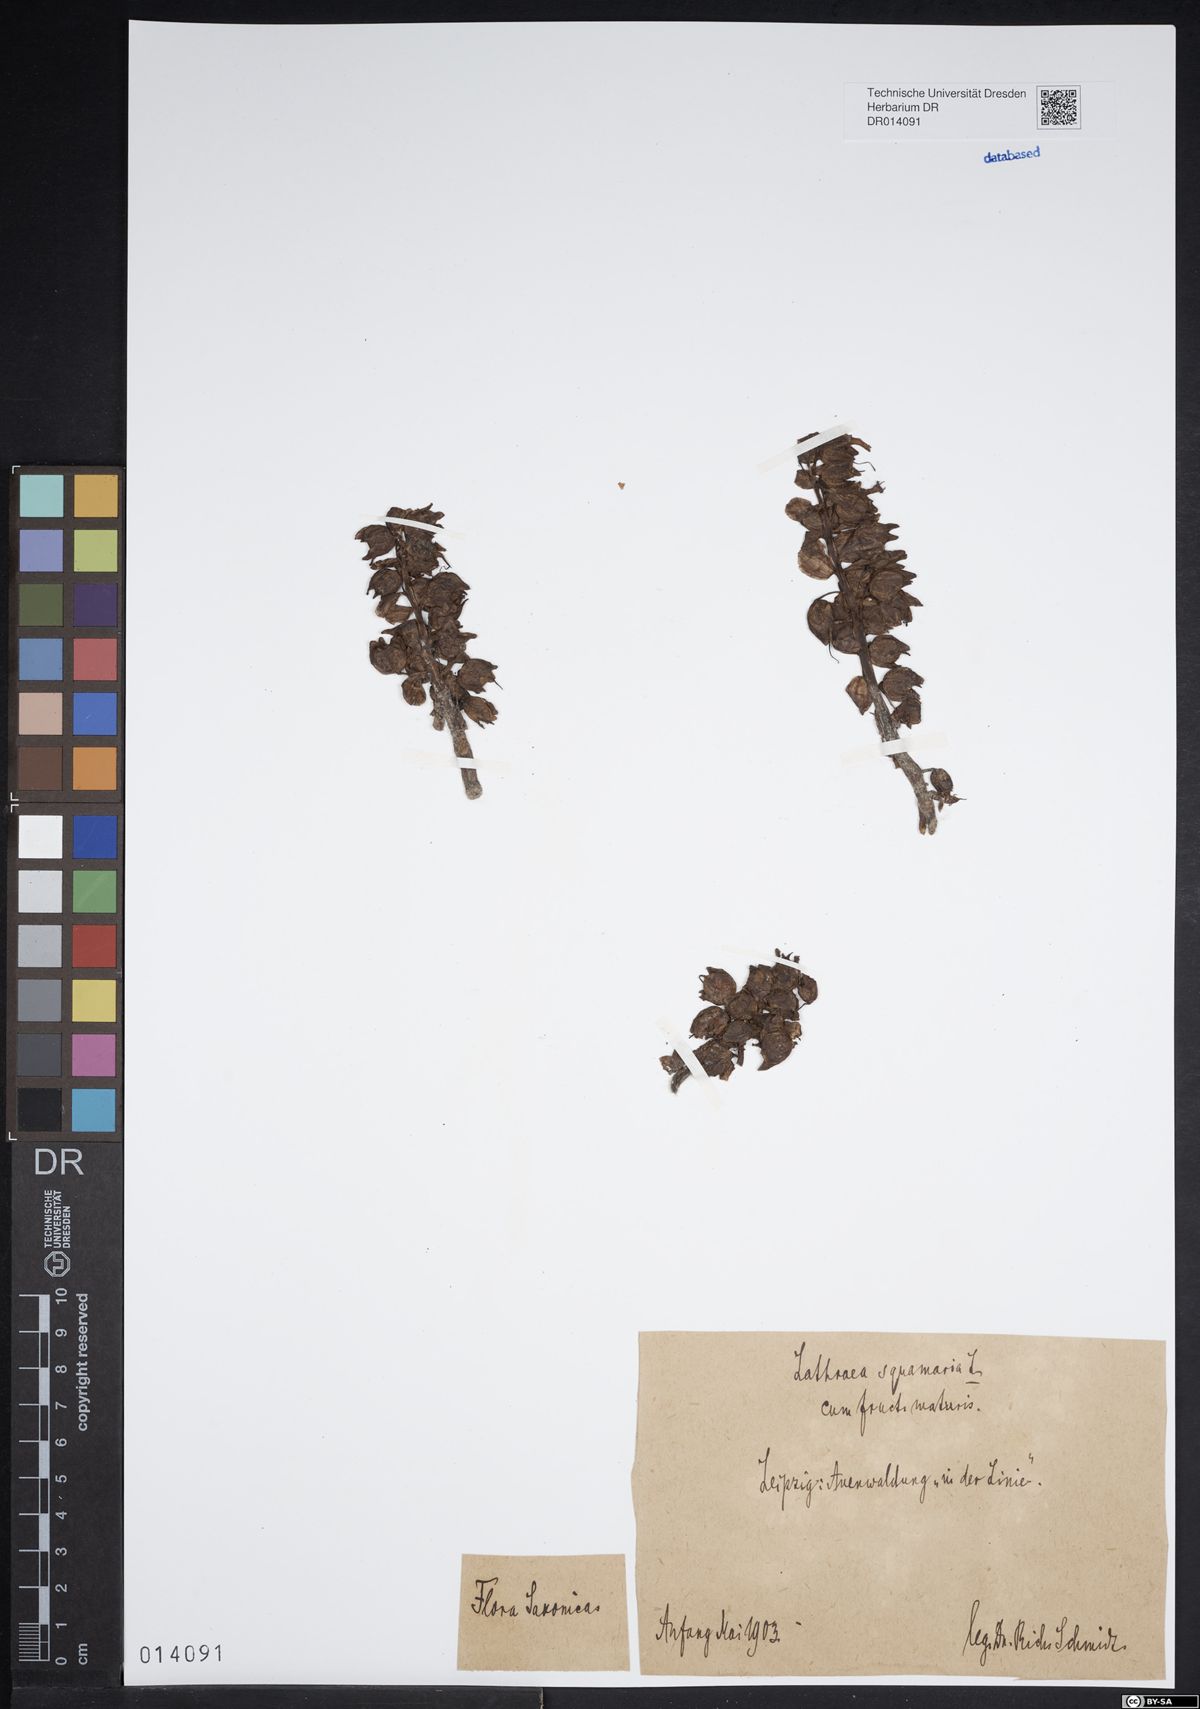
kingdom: Plantae
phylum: Tracheophyta
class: Magnoliopsida
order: Lamiales
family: Orobanchaceae
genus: Lathraea
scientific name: Lathraea squamaria
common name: Toothwort
